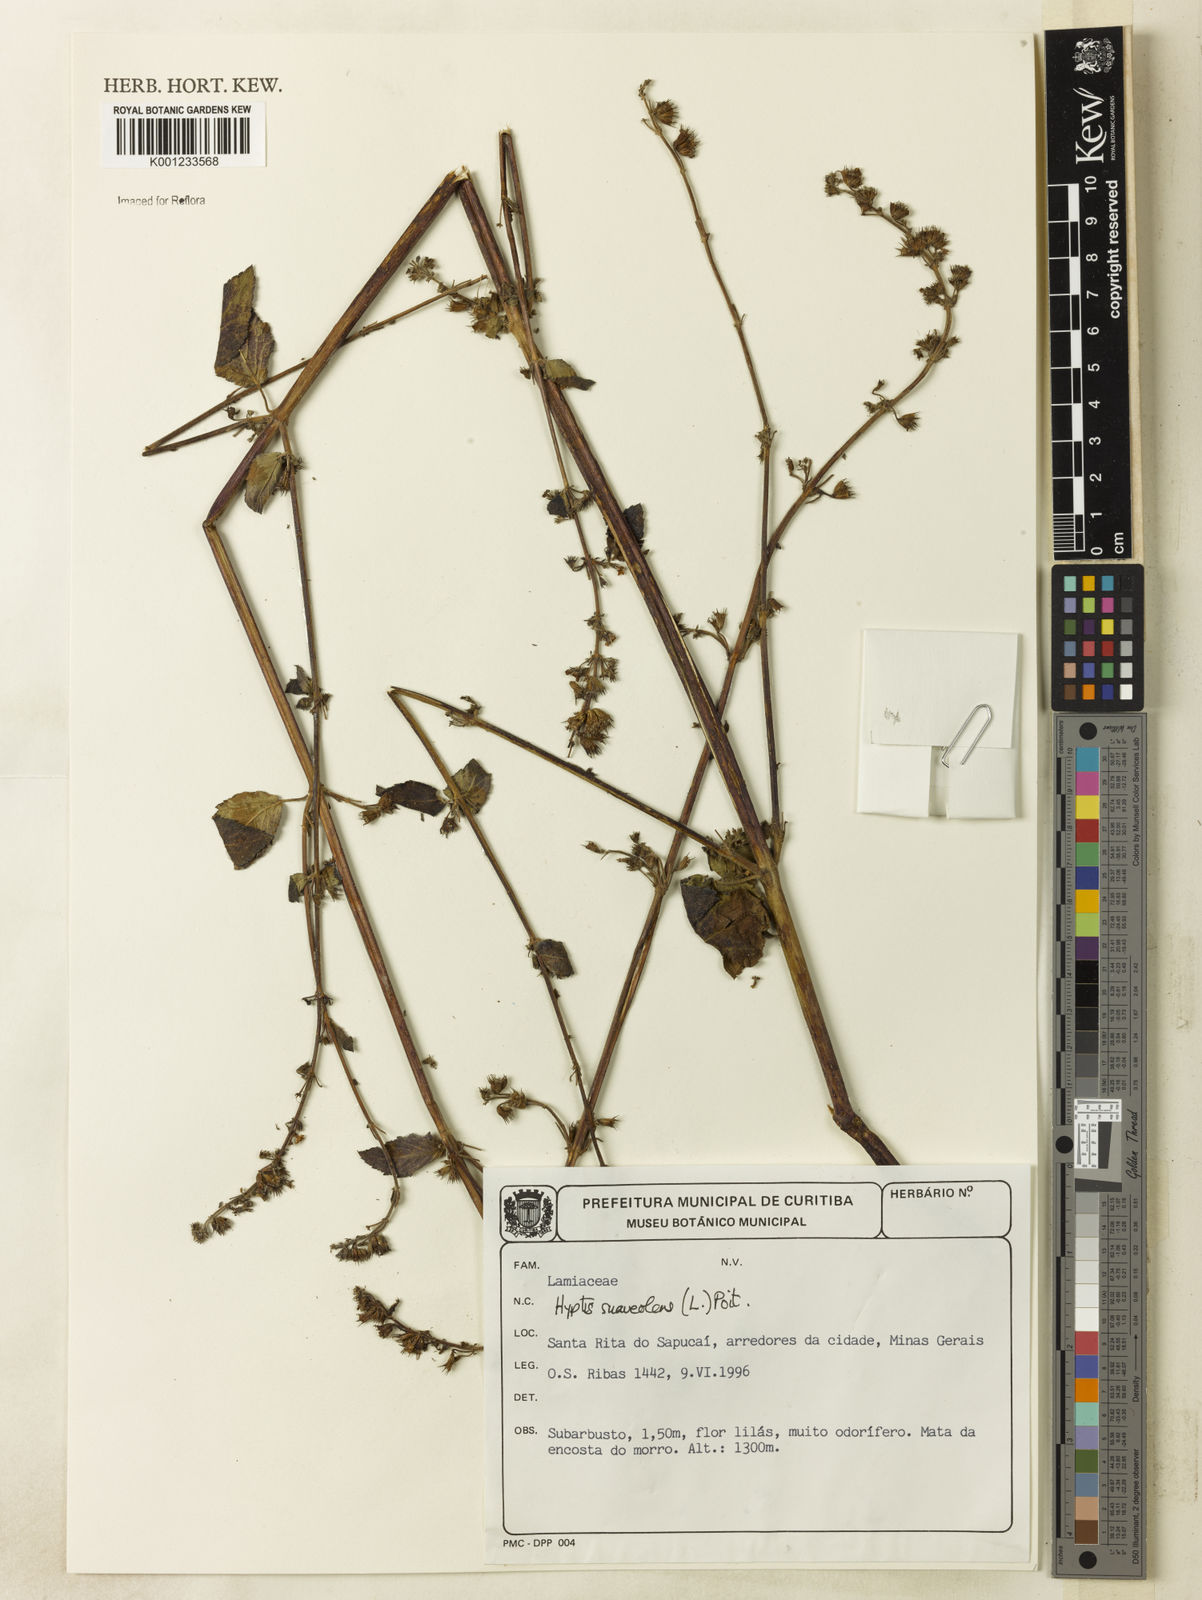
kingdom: Plantae
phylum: Tracheophyta
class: Magnoliopsida
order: Lamiales
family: Lamiaceae
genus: Mesosphaerum
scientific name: Mesosphaerum suaveolens
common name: Pignut
